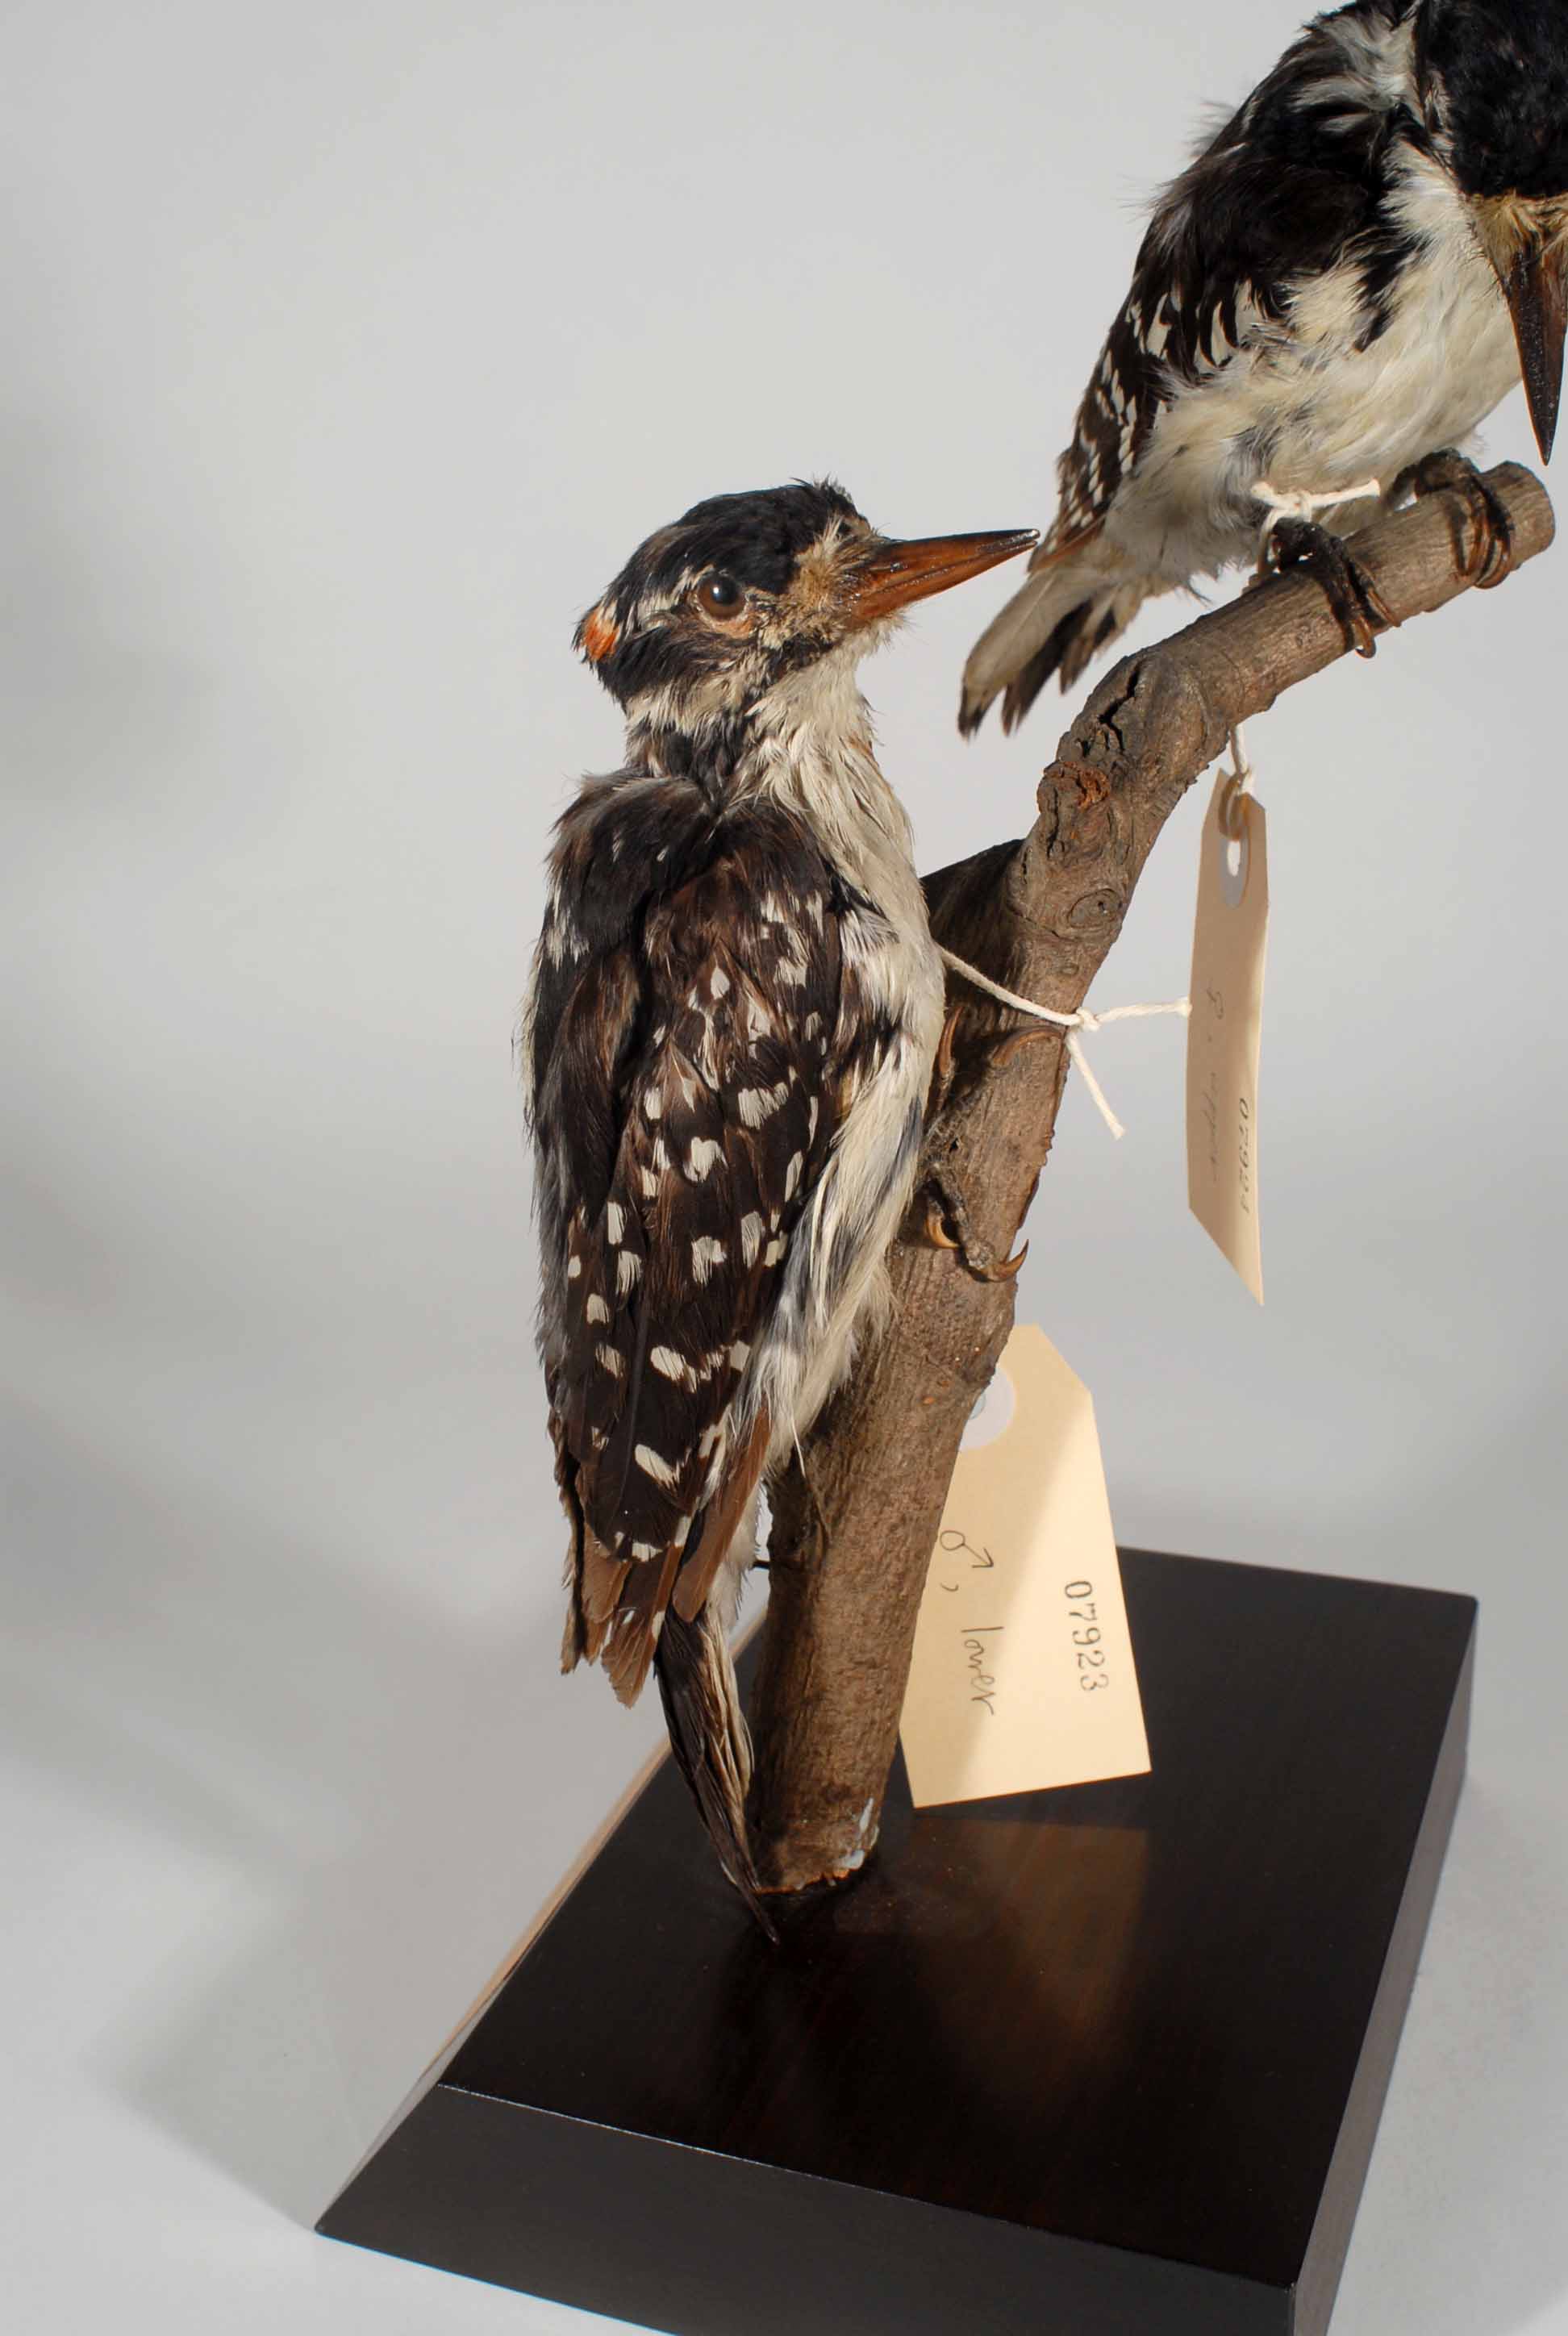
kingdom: Animalia
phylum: Chordata
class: Aves
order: Piciformes
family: Picidae
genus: Leuconotopicus
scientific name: Leuconotopicus villosus
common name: Hairy woodpecker
